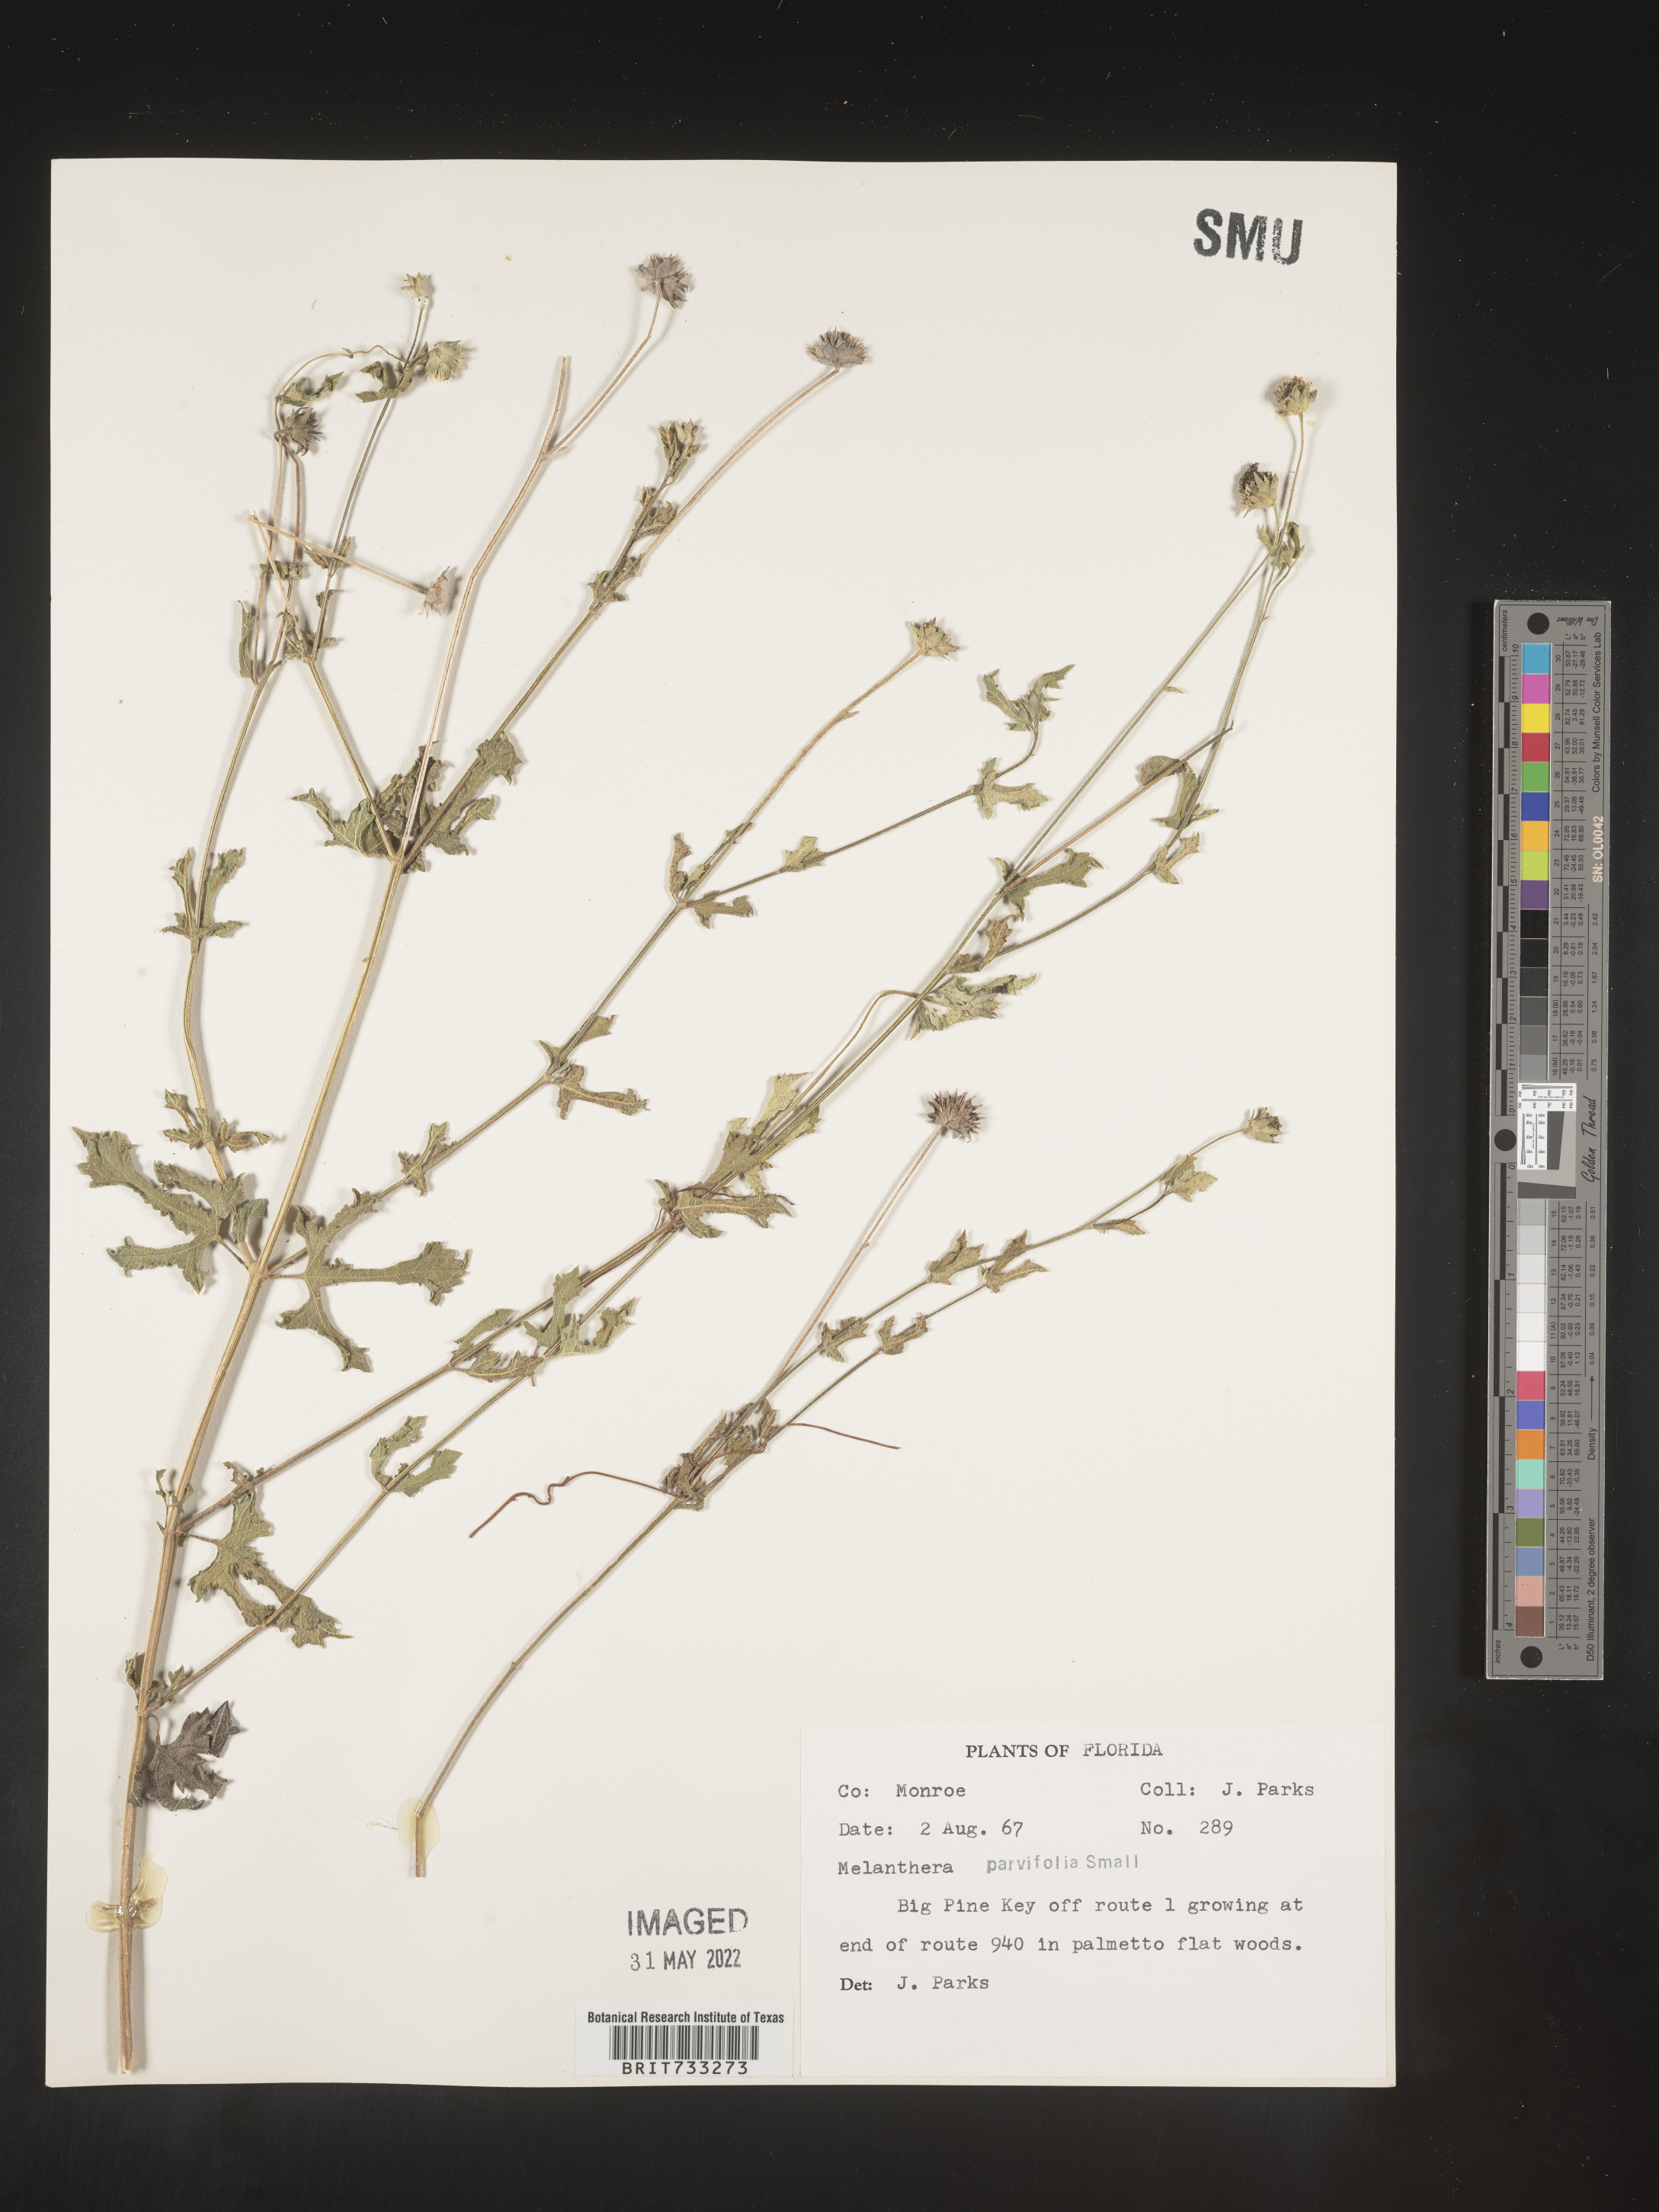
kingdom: Plantae
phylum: Tracheophyta
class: Magnoliopsida
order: Asterales
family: Asteraceae
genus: Melanthera
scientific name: Melanthera parvifolia
